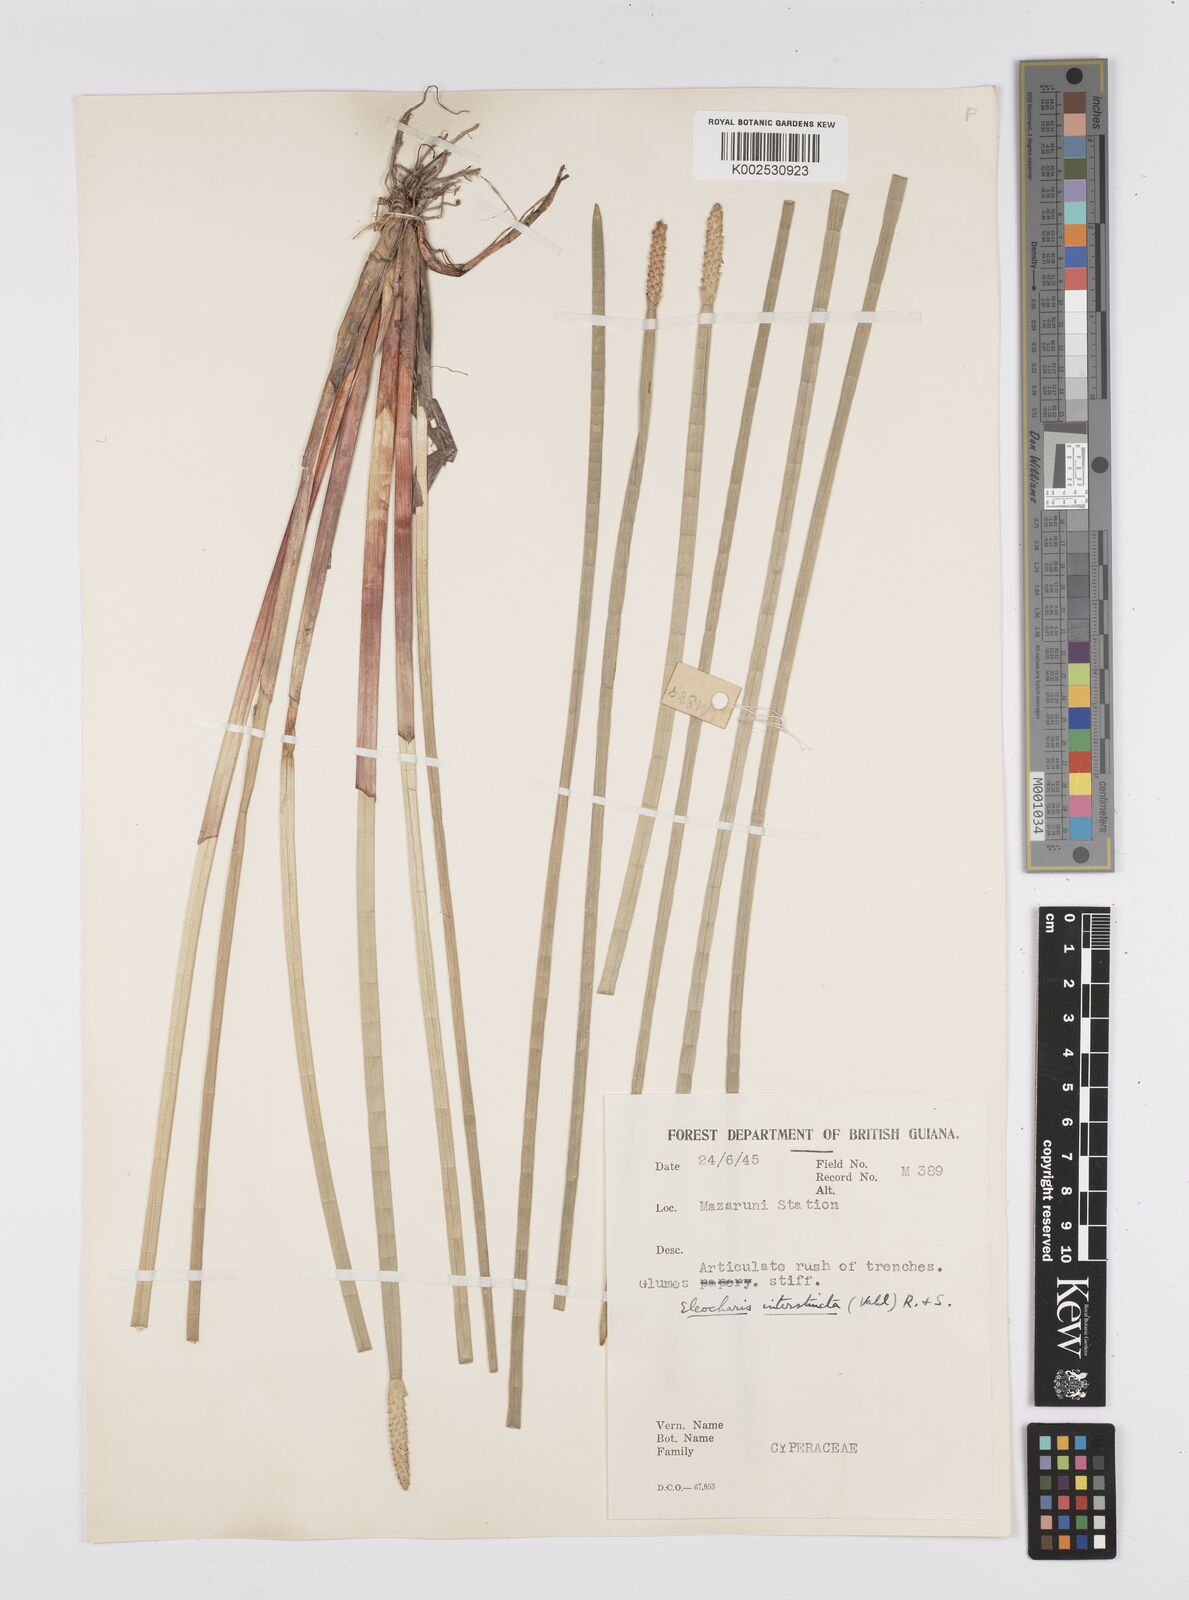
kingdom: Plantae
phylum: Tracheophyta
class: Liliopsida
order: Poales
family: Cyperaceae
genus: Eleocharis
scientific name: Eleocharis interstincta
